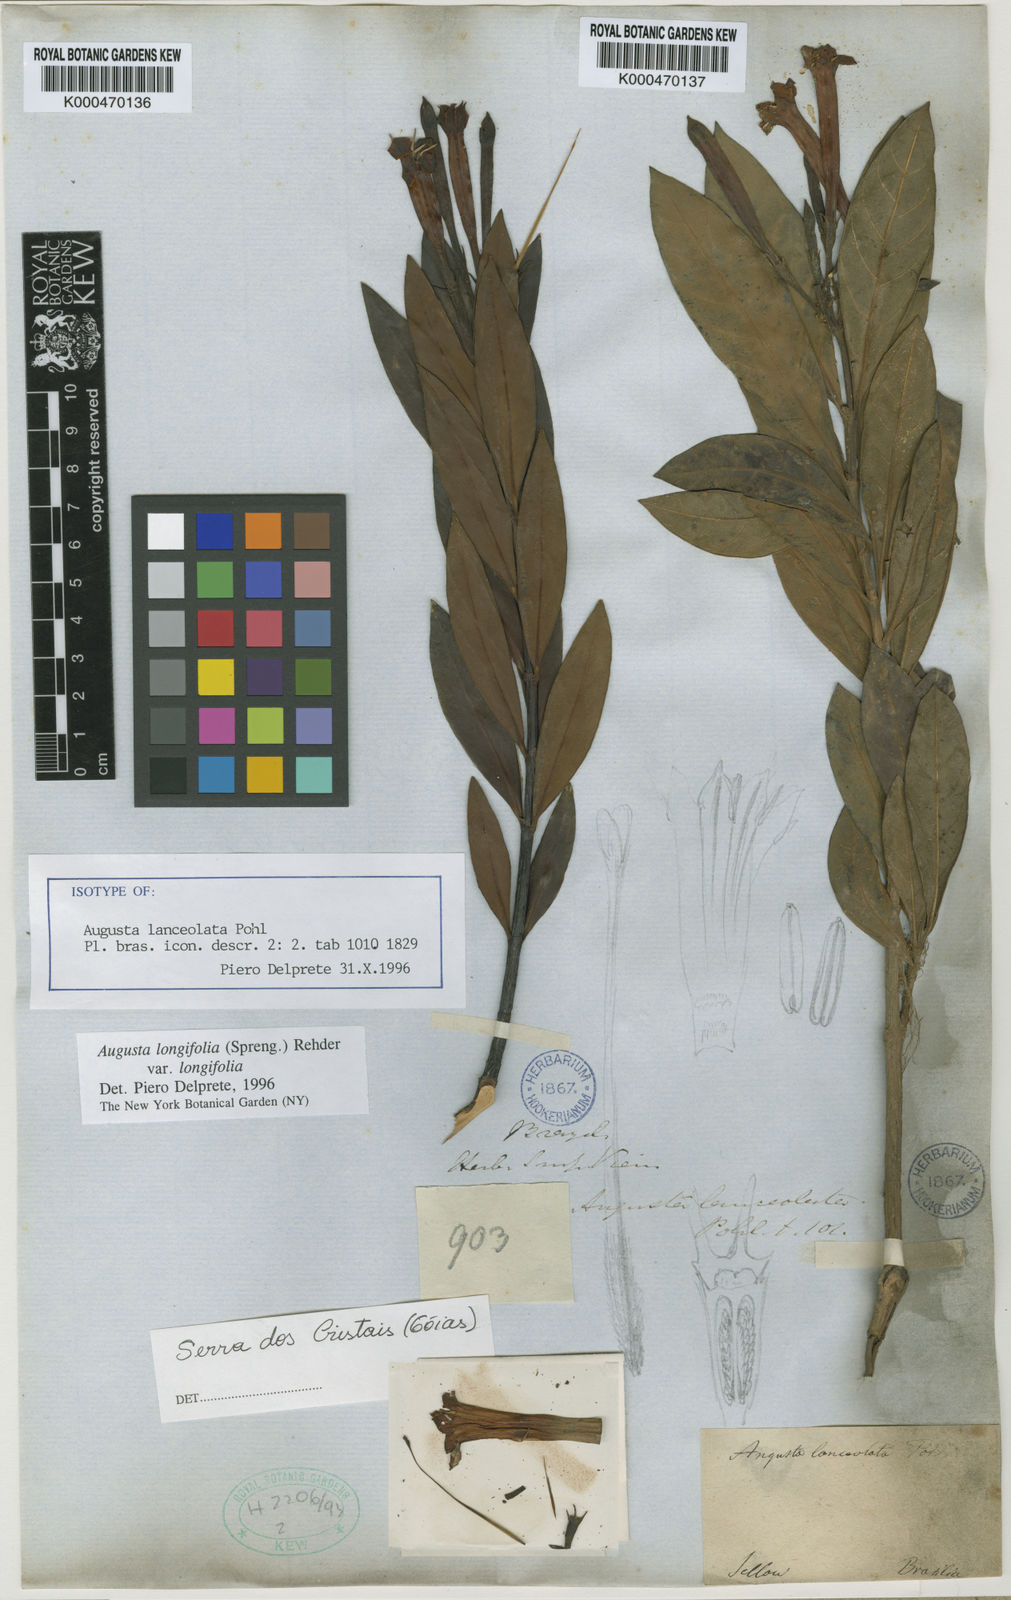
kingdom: Plantae
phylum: Tracheophyta
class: Magnoliopsida
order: Gentianales
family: Rubiaceae
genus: Augusta
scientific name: Augusta longifolia
